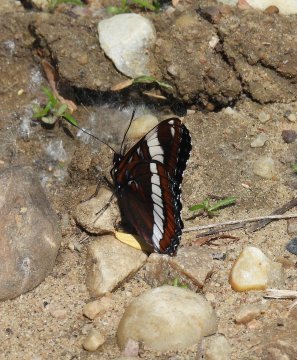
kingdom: Animalia
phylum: Arthropoda
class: Insecta
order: Lepidoptera
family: Nymphalidae
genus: Limenitis
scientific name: Limenitis arthemis
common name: Red-spotted Admiral
